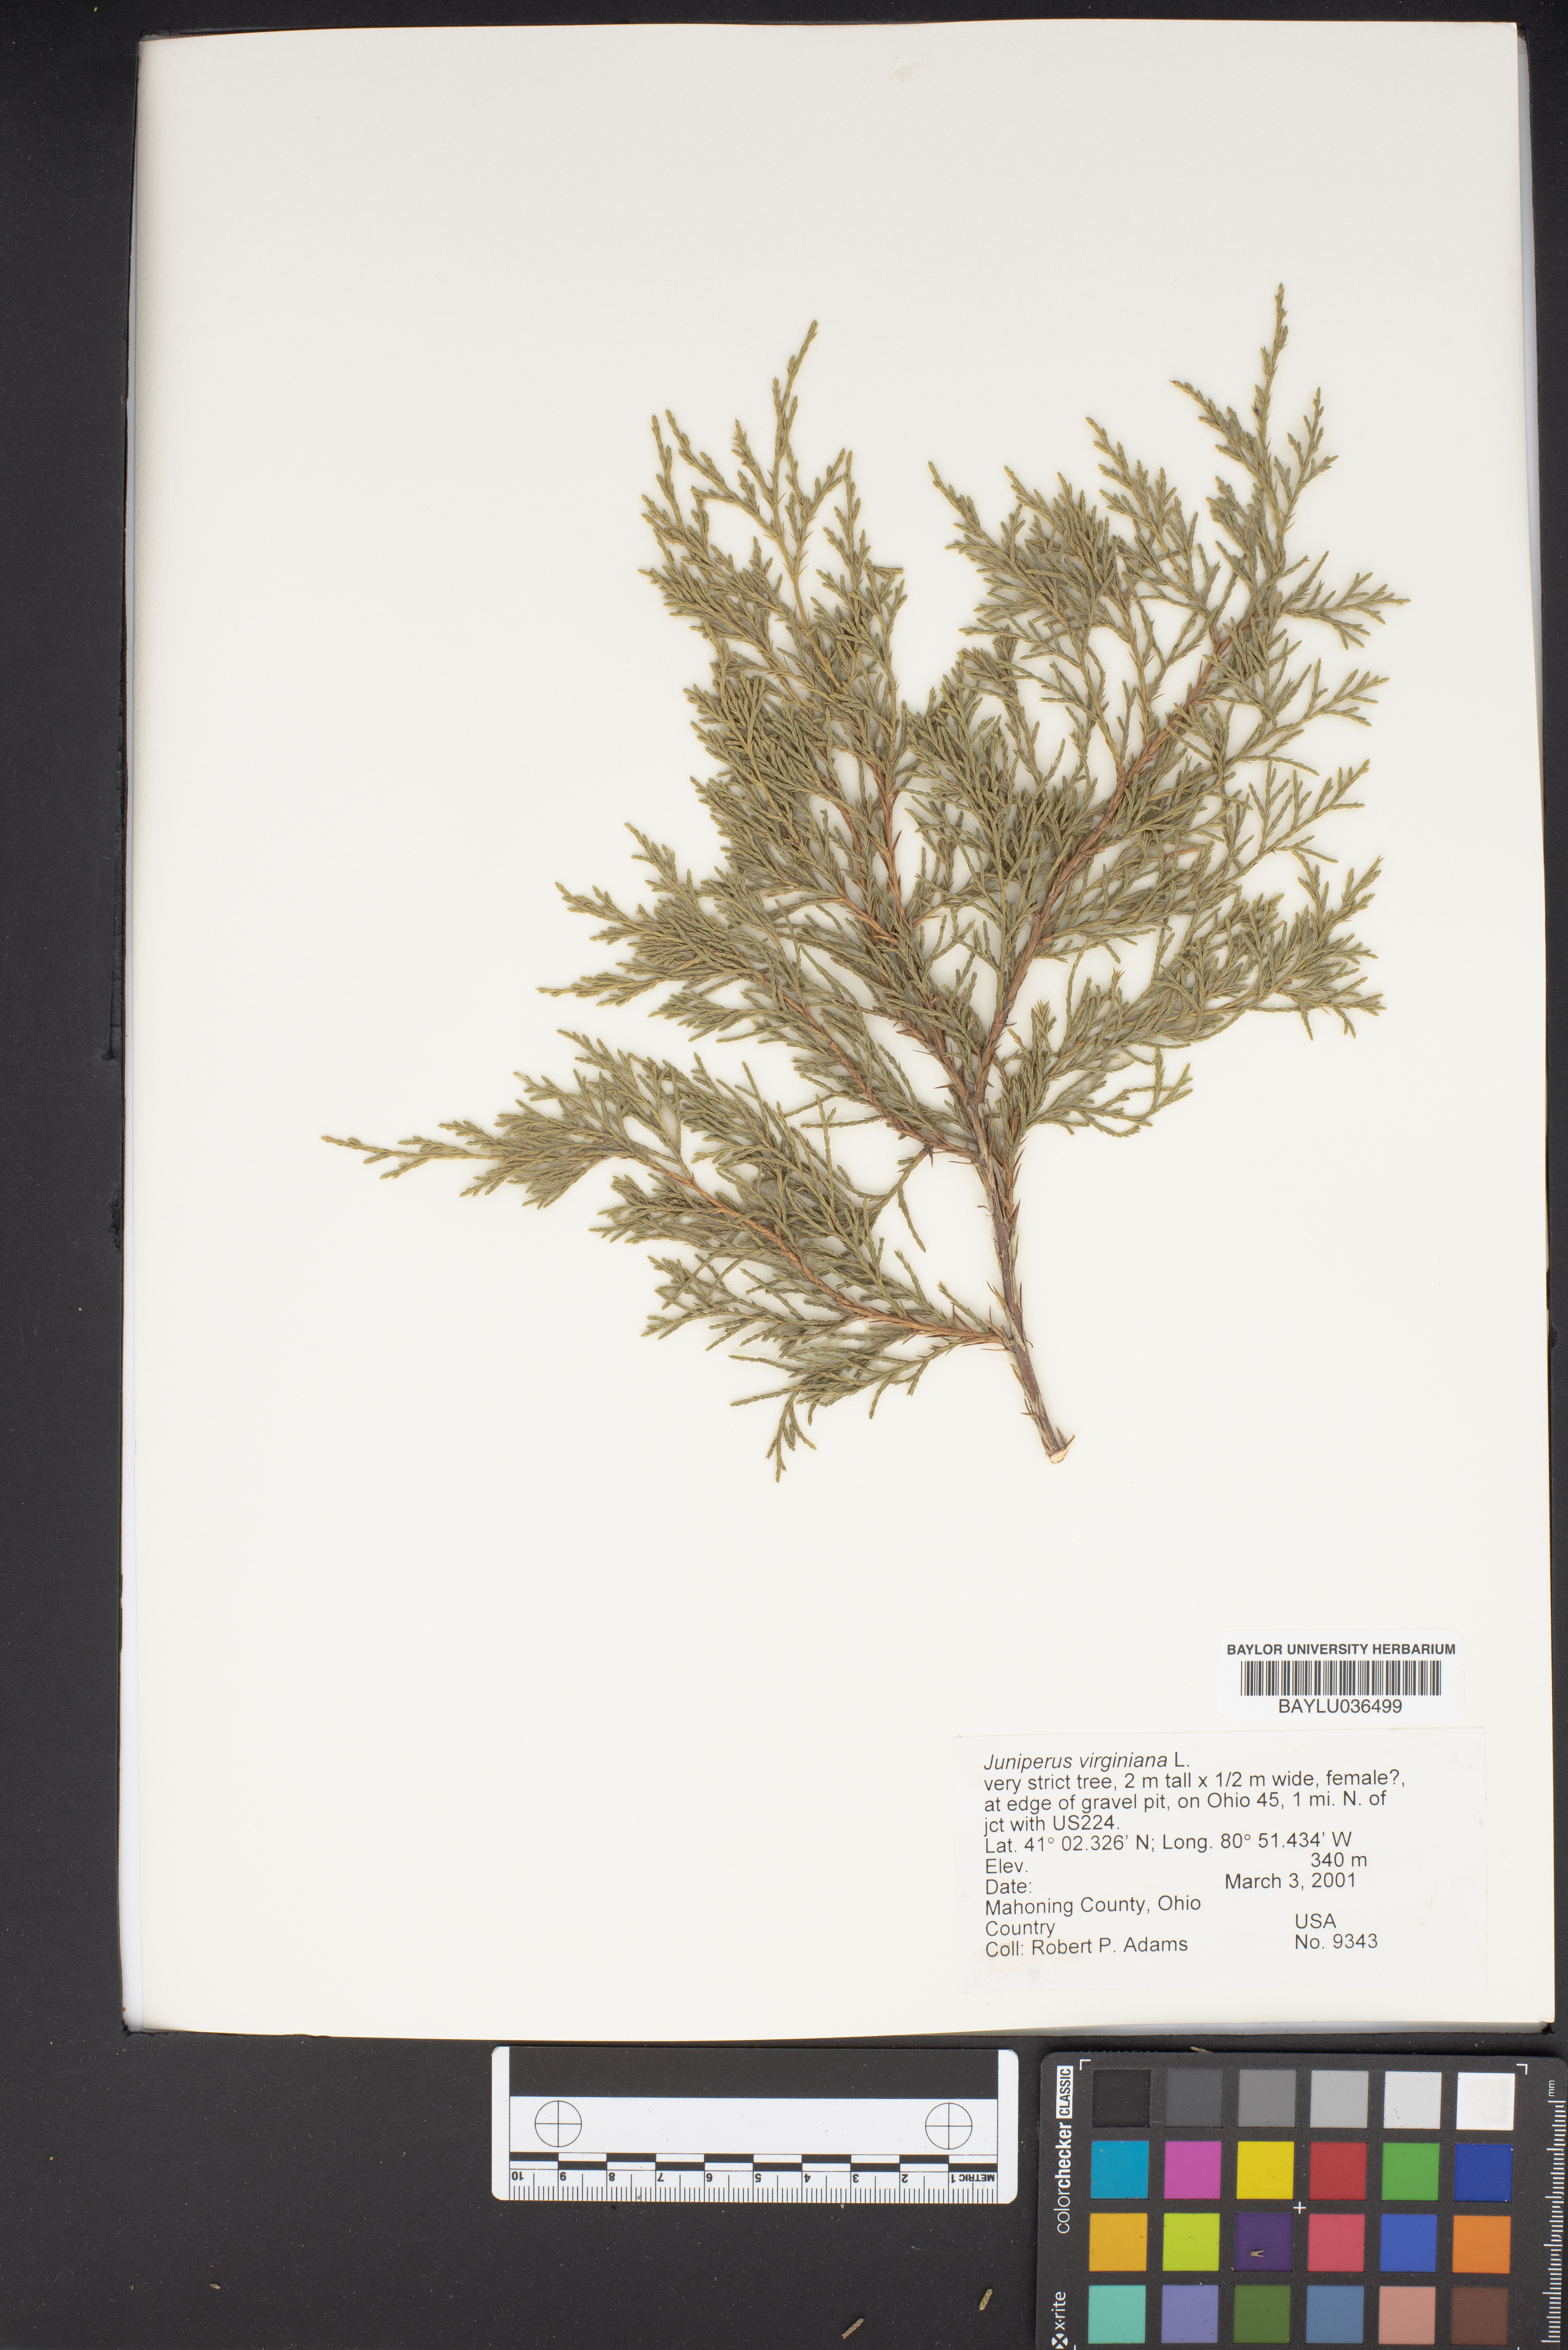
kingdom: Plantae
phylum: Tracheophyta
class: Pinopsida
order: Pinales
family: Cupressaceae
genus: Juniperus
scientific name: Juniperus virginiana
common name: Red juniper
